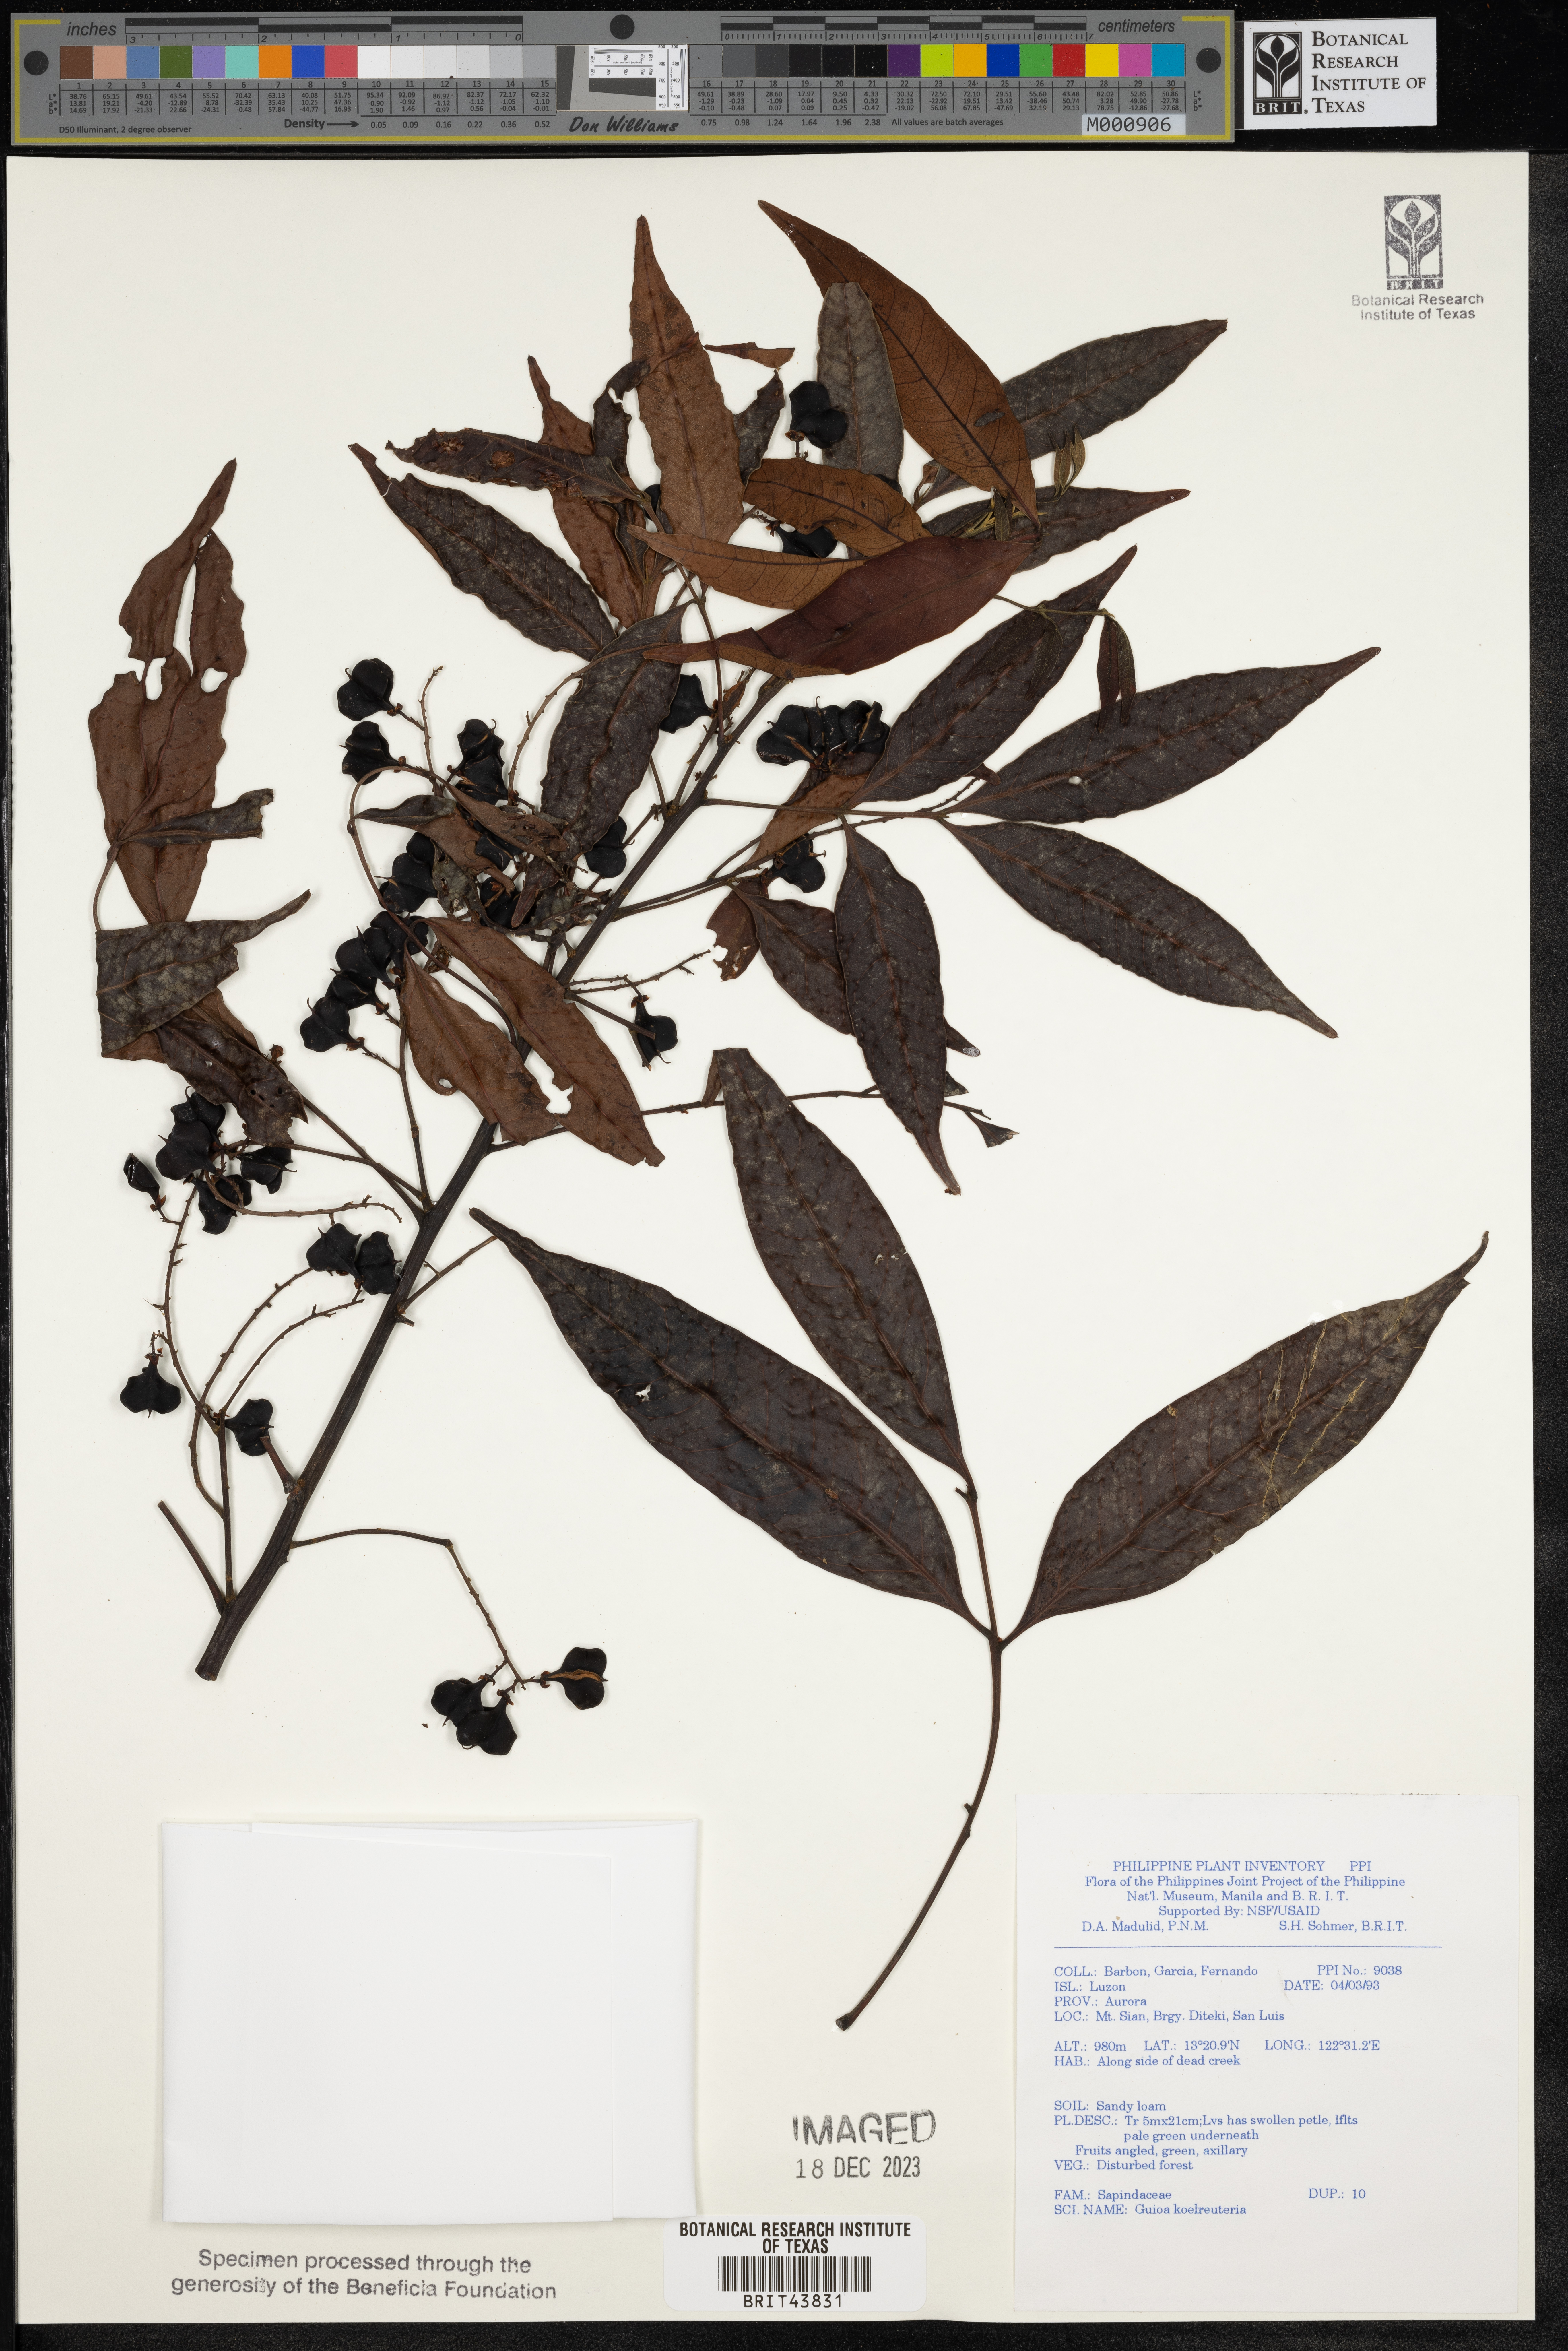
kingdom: Plantae
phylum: Tracheophyta
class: Magnoliopsida
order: Sapindales
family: Sapindaceae
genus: Guioa
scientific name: Guioa koelreuteria
